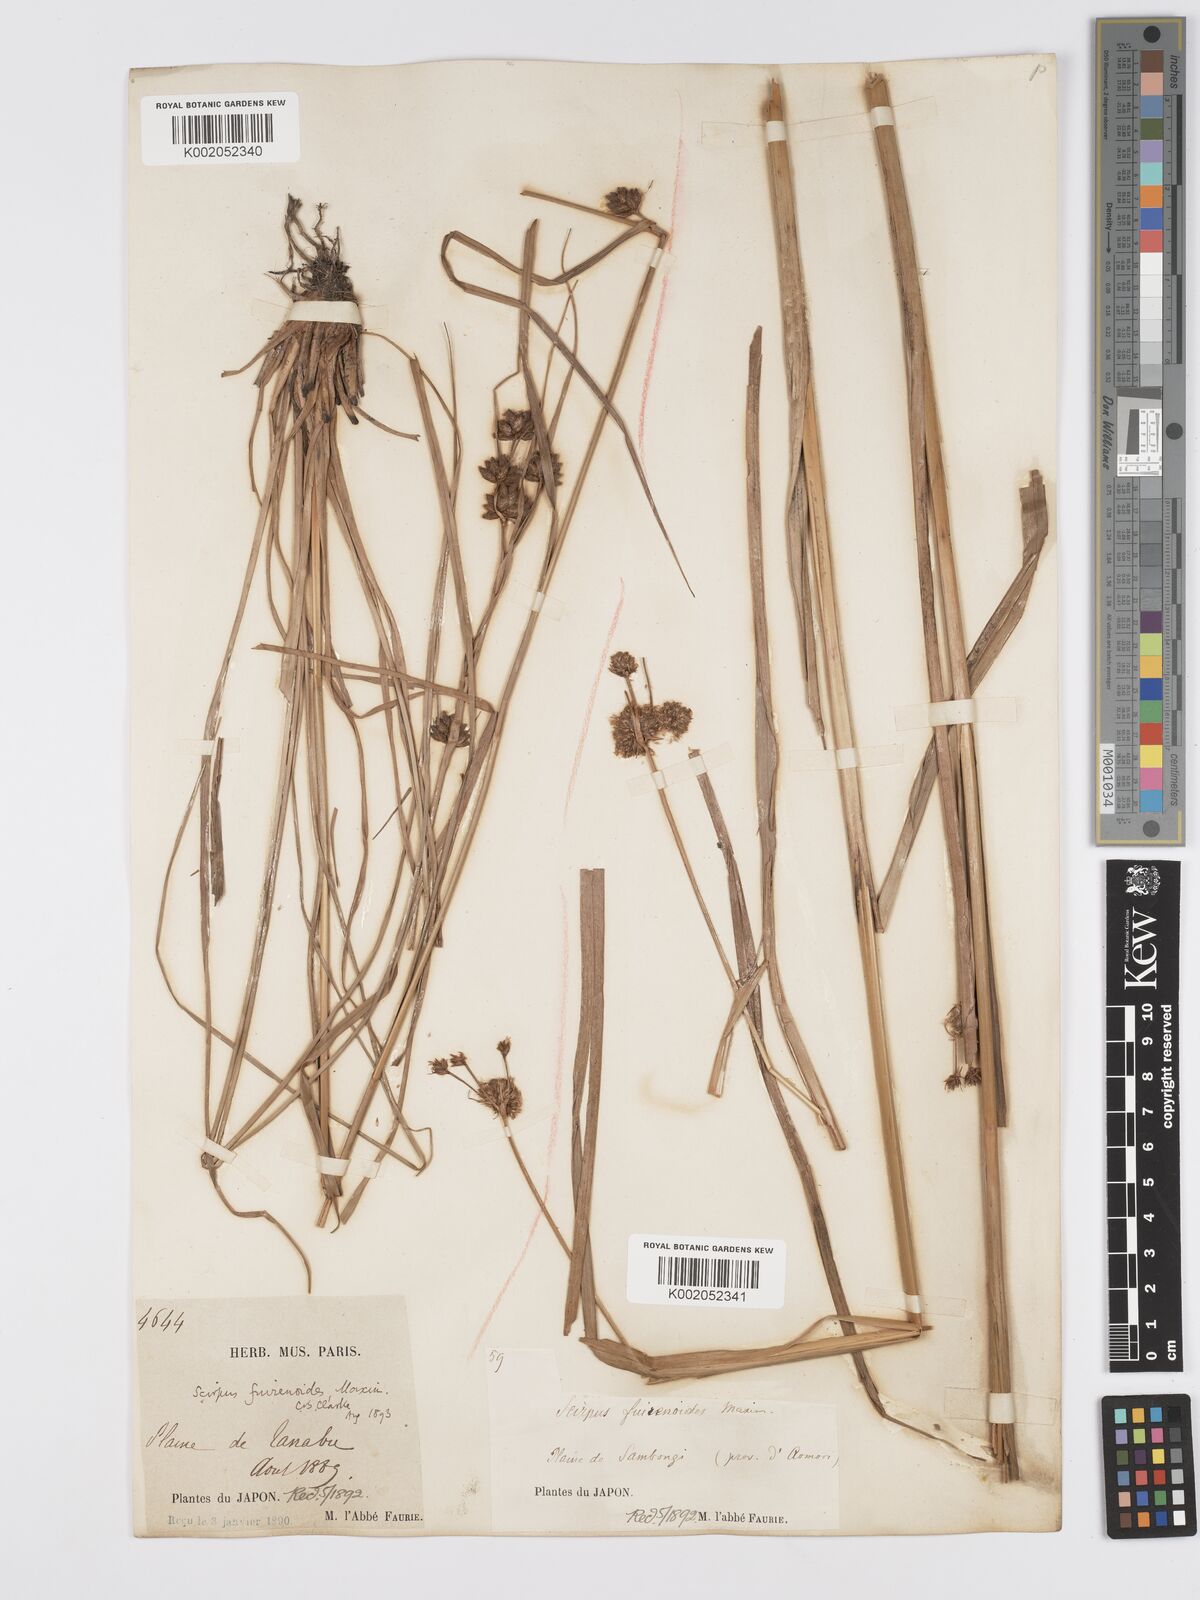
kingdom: Plantae
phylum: Tracheophyta
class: Liliopsida
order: Poales
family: Cyperaceae
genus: Scirpus
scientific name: Scirpus fuirenoides
